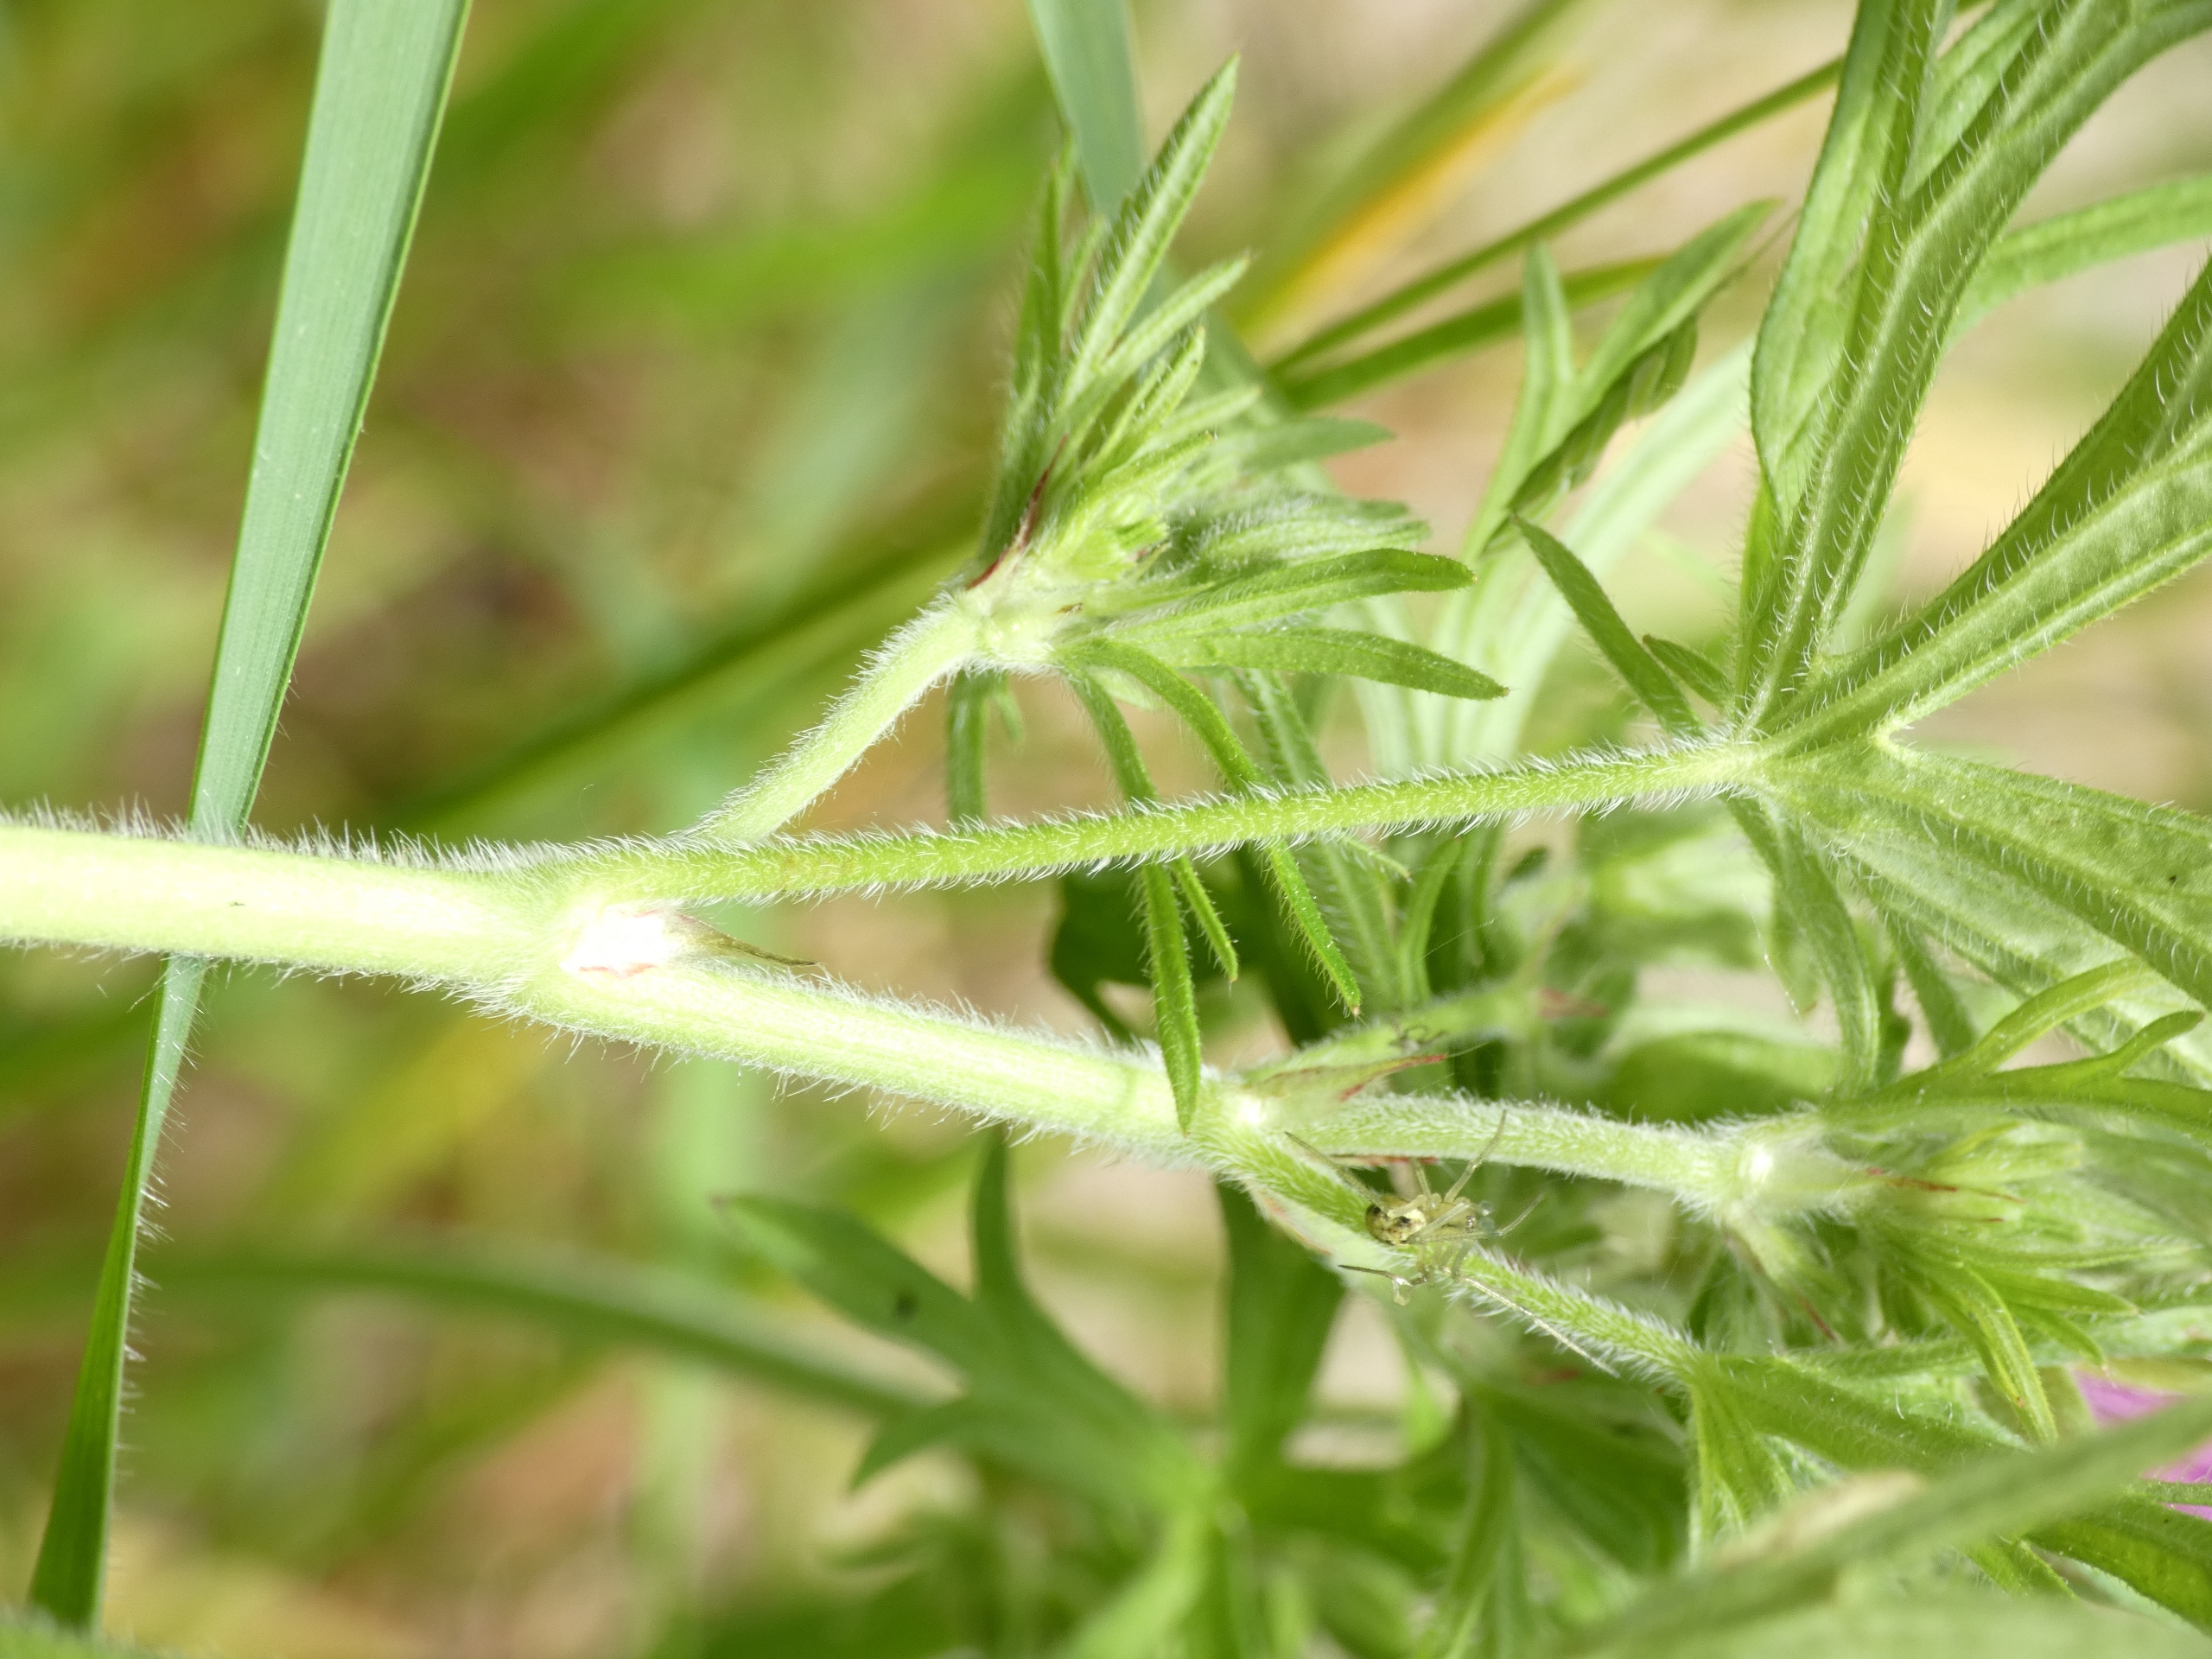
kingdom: Plantae
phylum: Tracheophyta
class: Magnoliopsida
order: Geraniales
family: Geraniaceae
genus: Geranium
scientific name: Geranium dissectum
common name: Kløftet storkenæb
